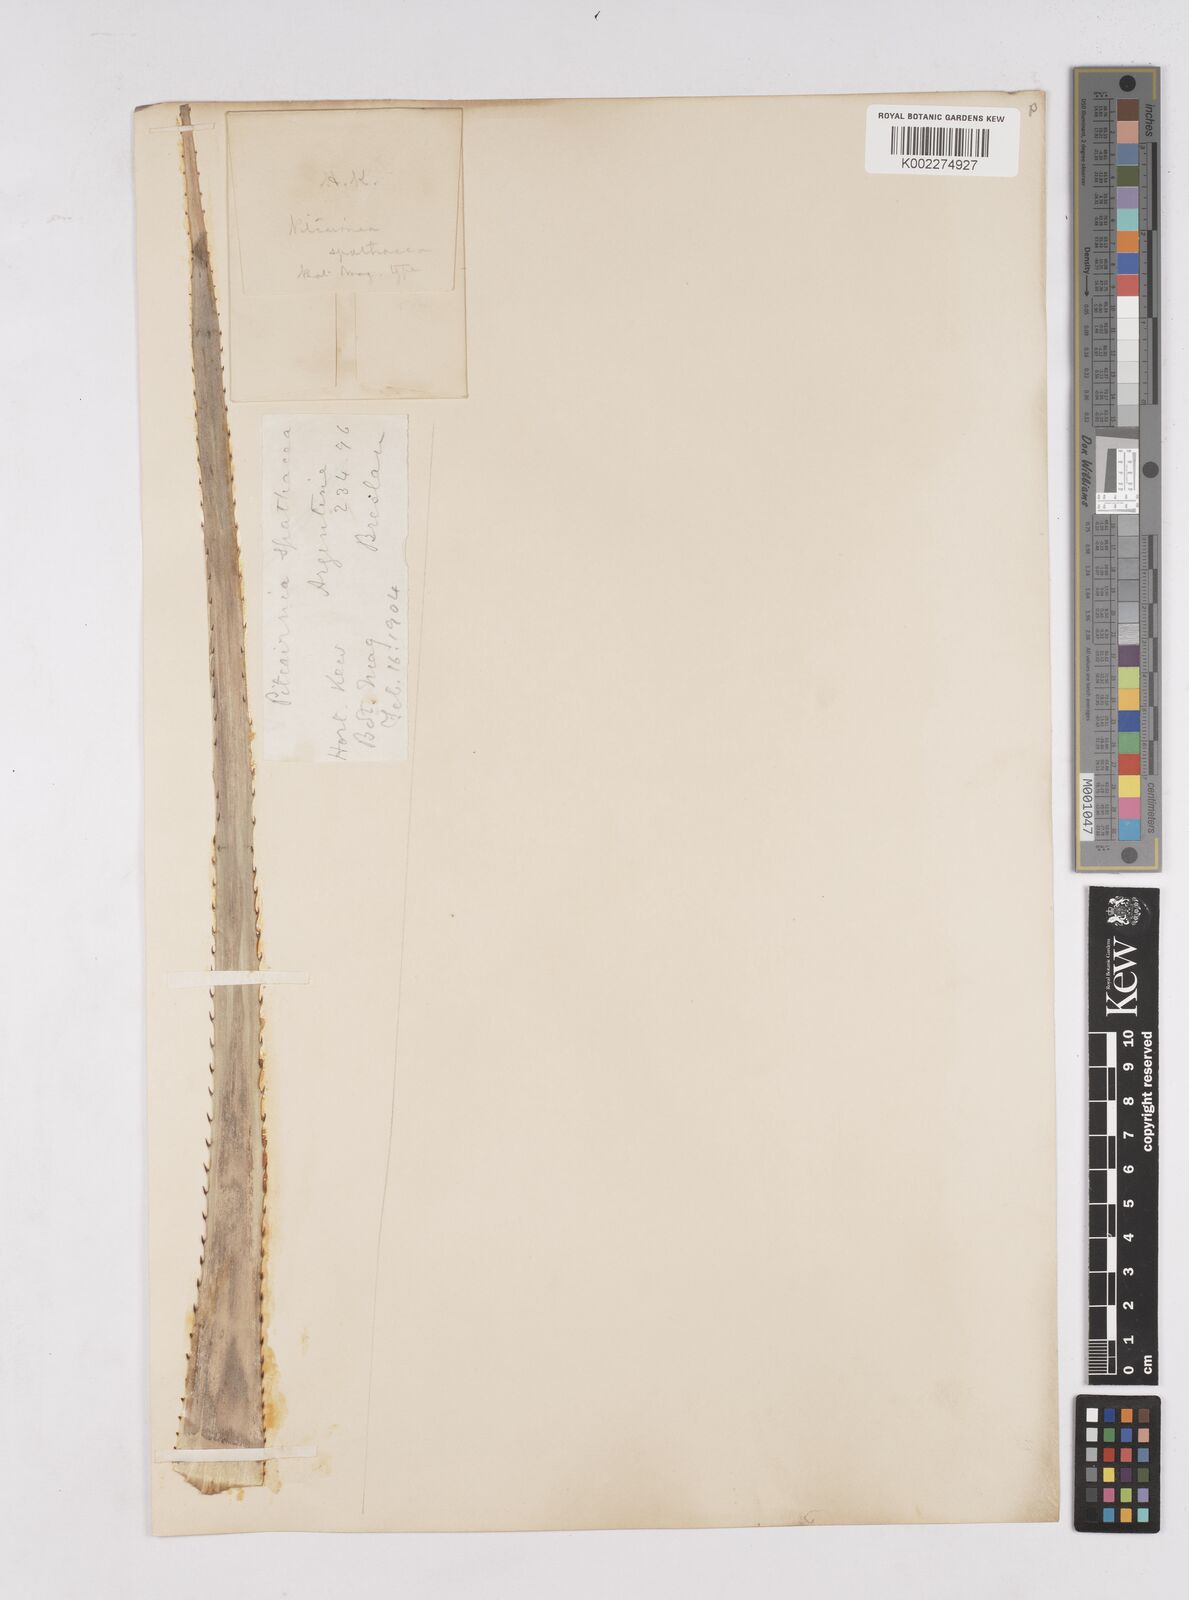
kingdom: Plantae
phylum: Tracheophyta
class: Liliopsida
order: Poales
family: Bromeliaceae
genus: Puya
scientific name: Puya spathacea
